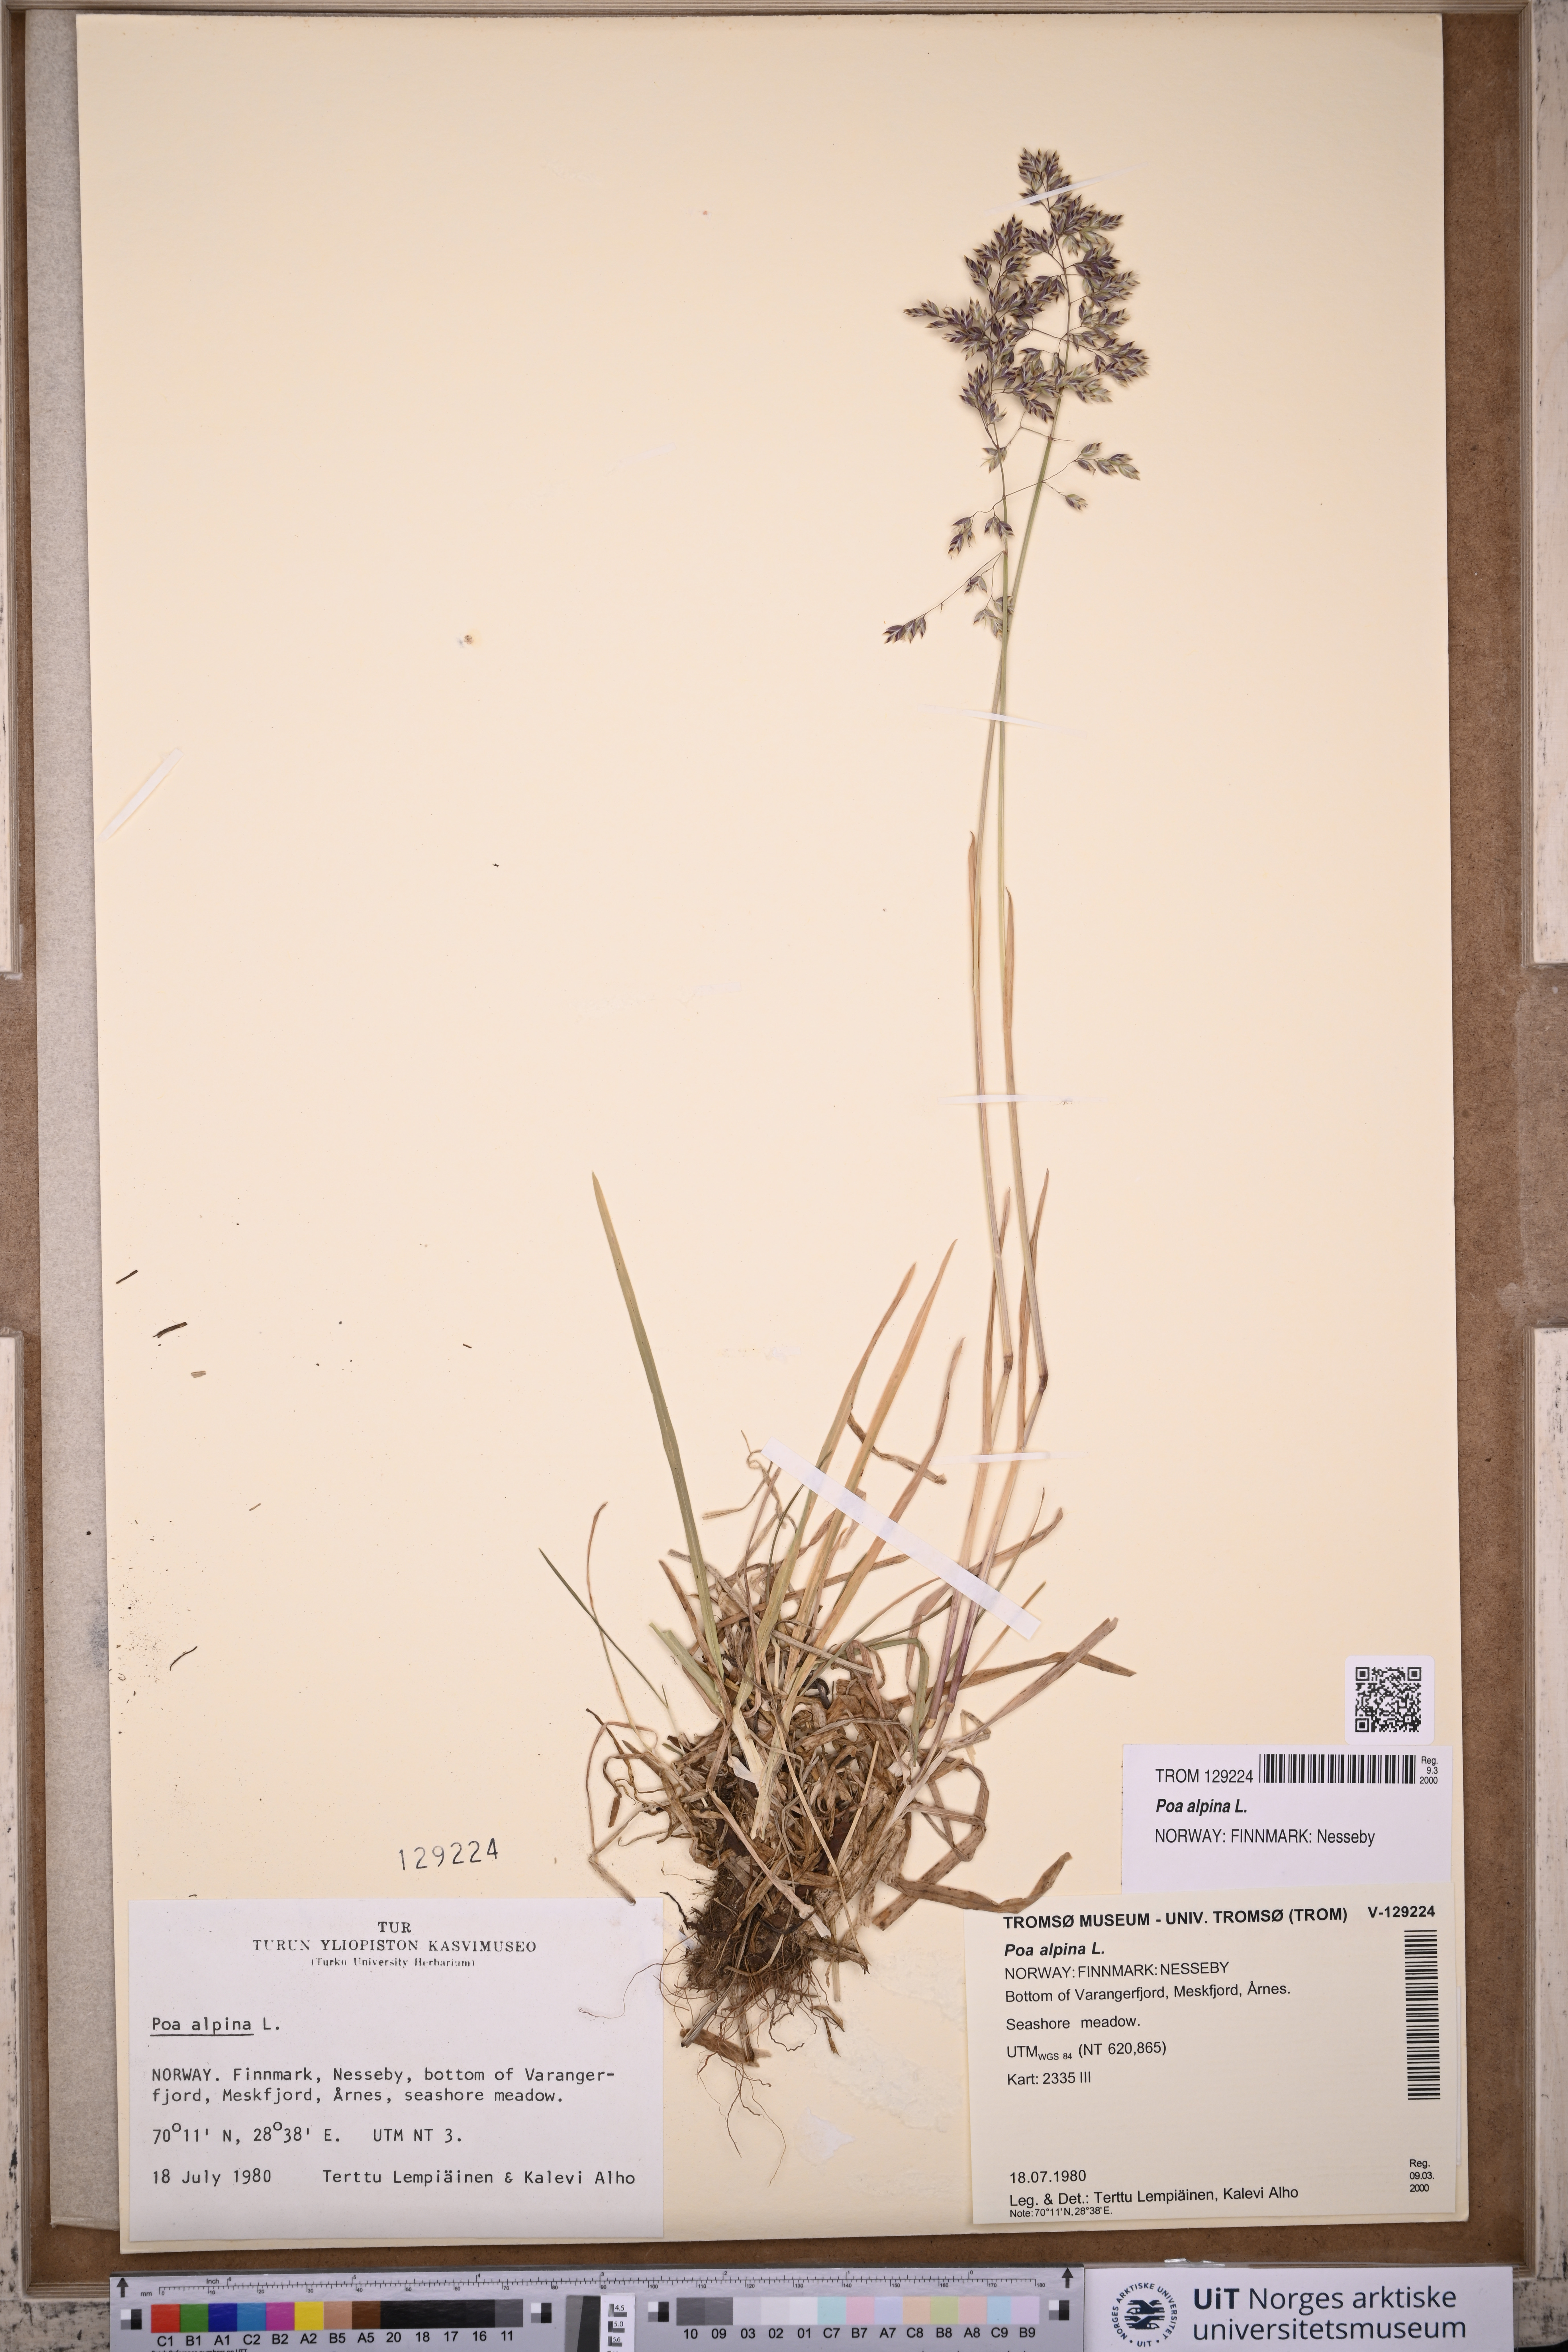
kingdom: Plantae
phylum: Tracheophyta
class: Liliopsida
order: Poales
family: Poaceae
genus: Poa
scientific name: Poa alpina
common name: Alpine bluegrass
